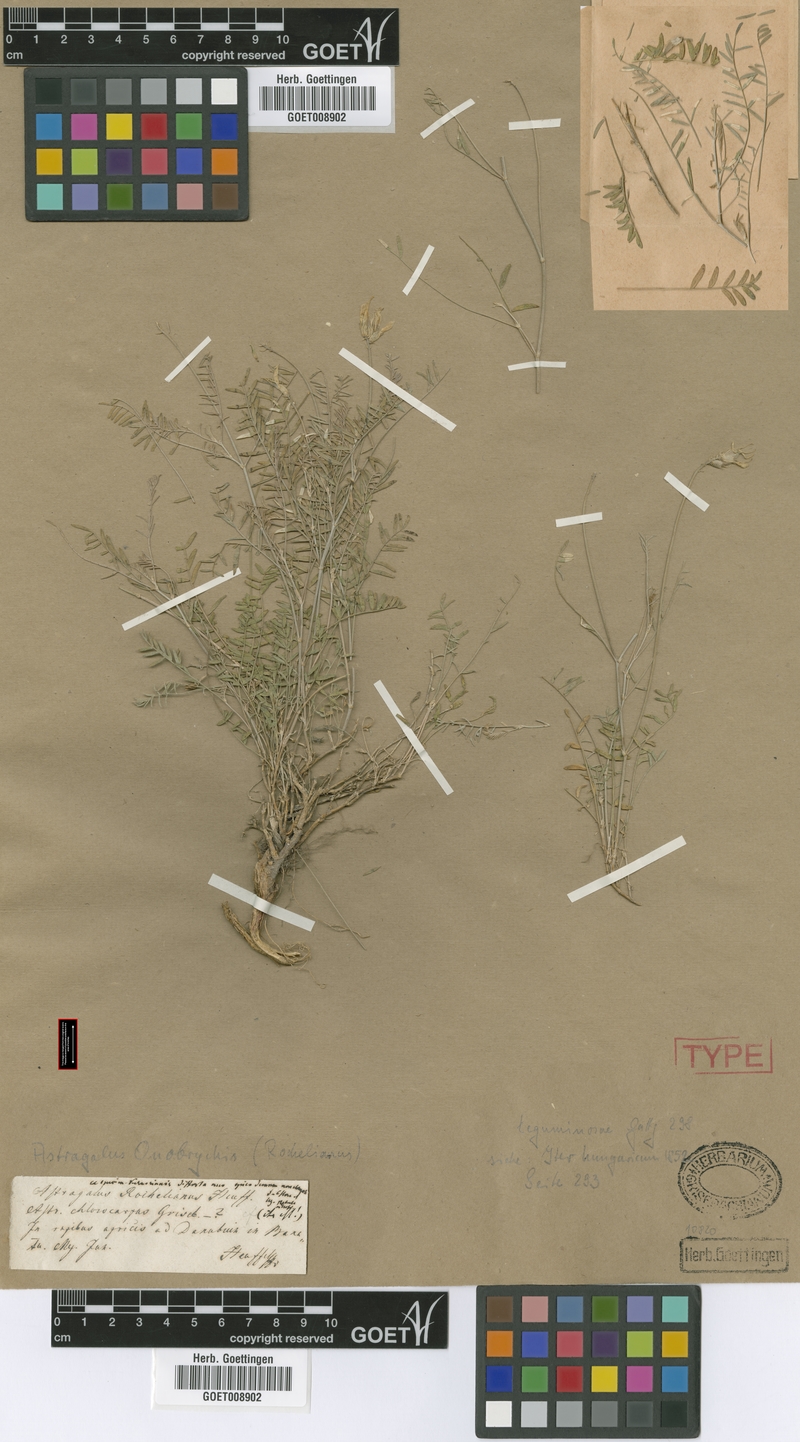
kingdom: Plantae
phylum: Tracheophyta
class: Magnoliopsida
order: Fabales
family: Fabaceae
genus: Astragalus
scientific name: Astragalus onobrychis
